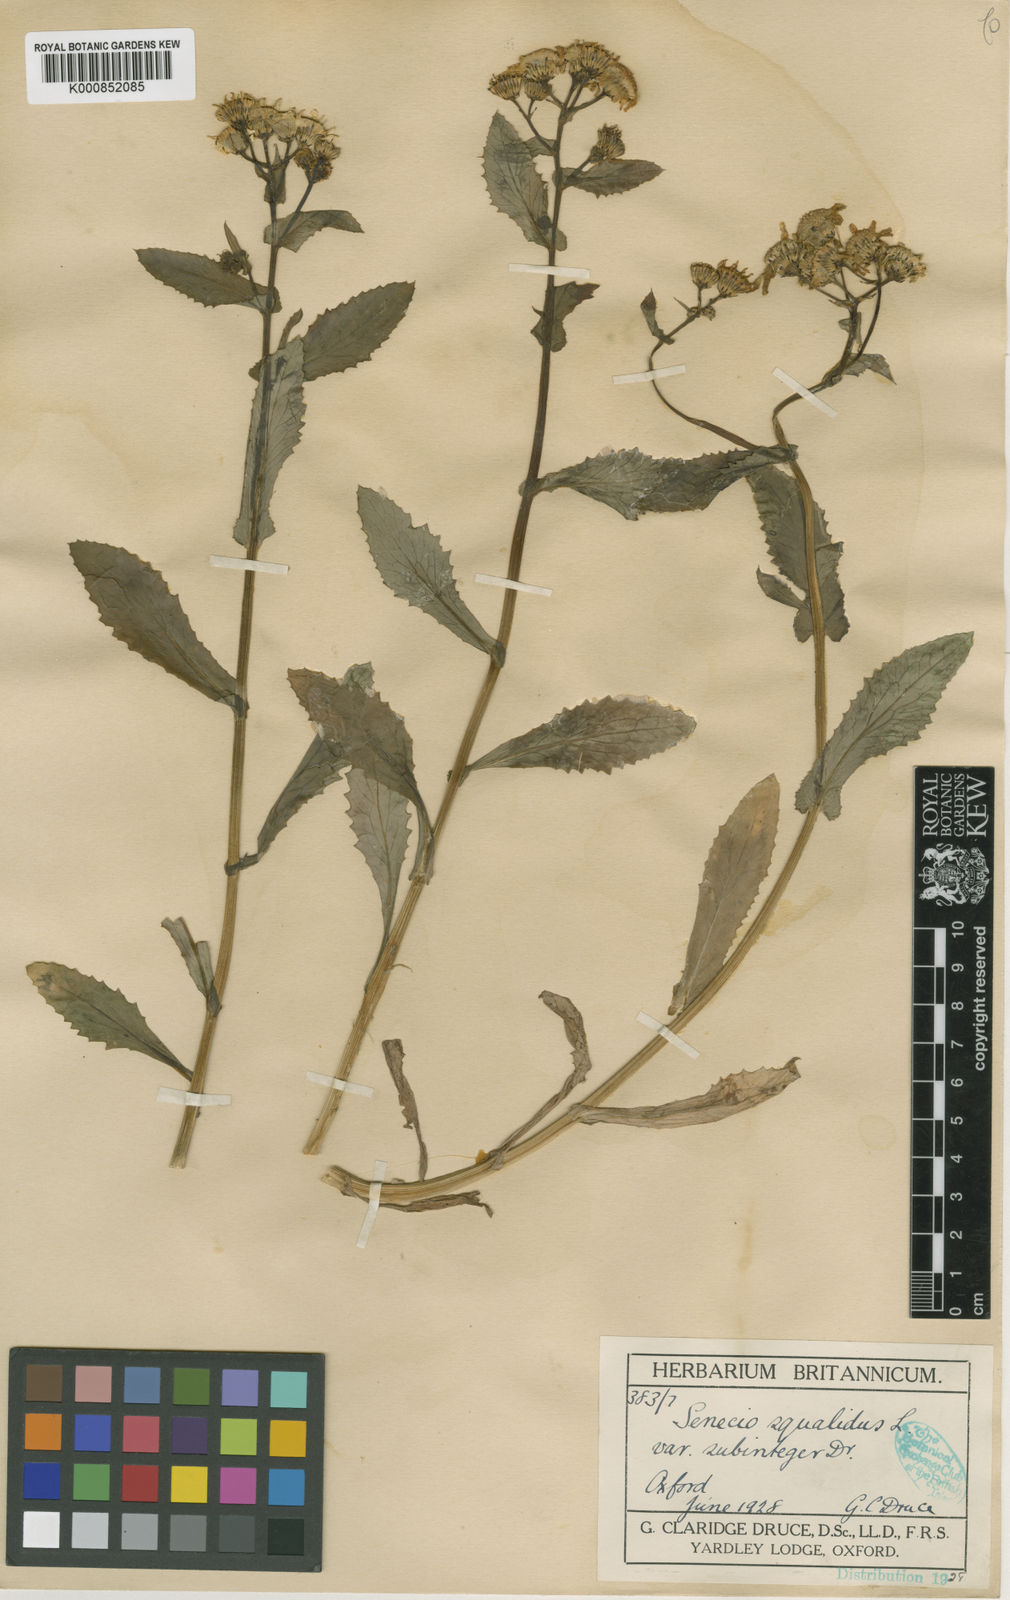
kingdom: Plantae
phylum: Tracheophyta
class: Magnoliopsida
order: Asterales
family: Asteraceae
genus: Senecio
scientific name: Senecio squalidus
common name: Oxford ragwort
